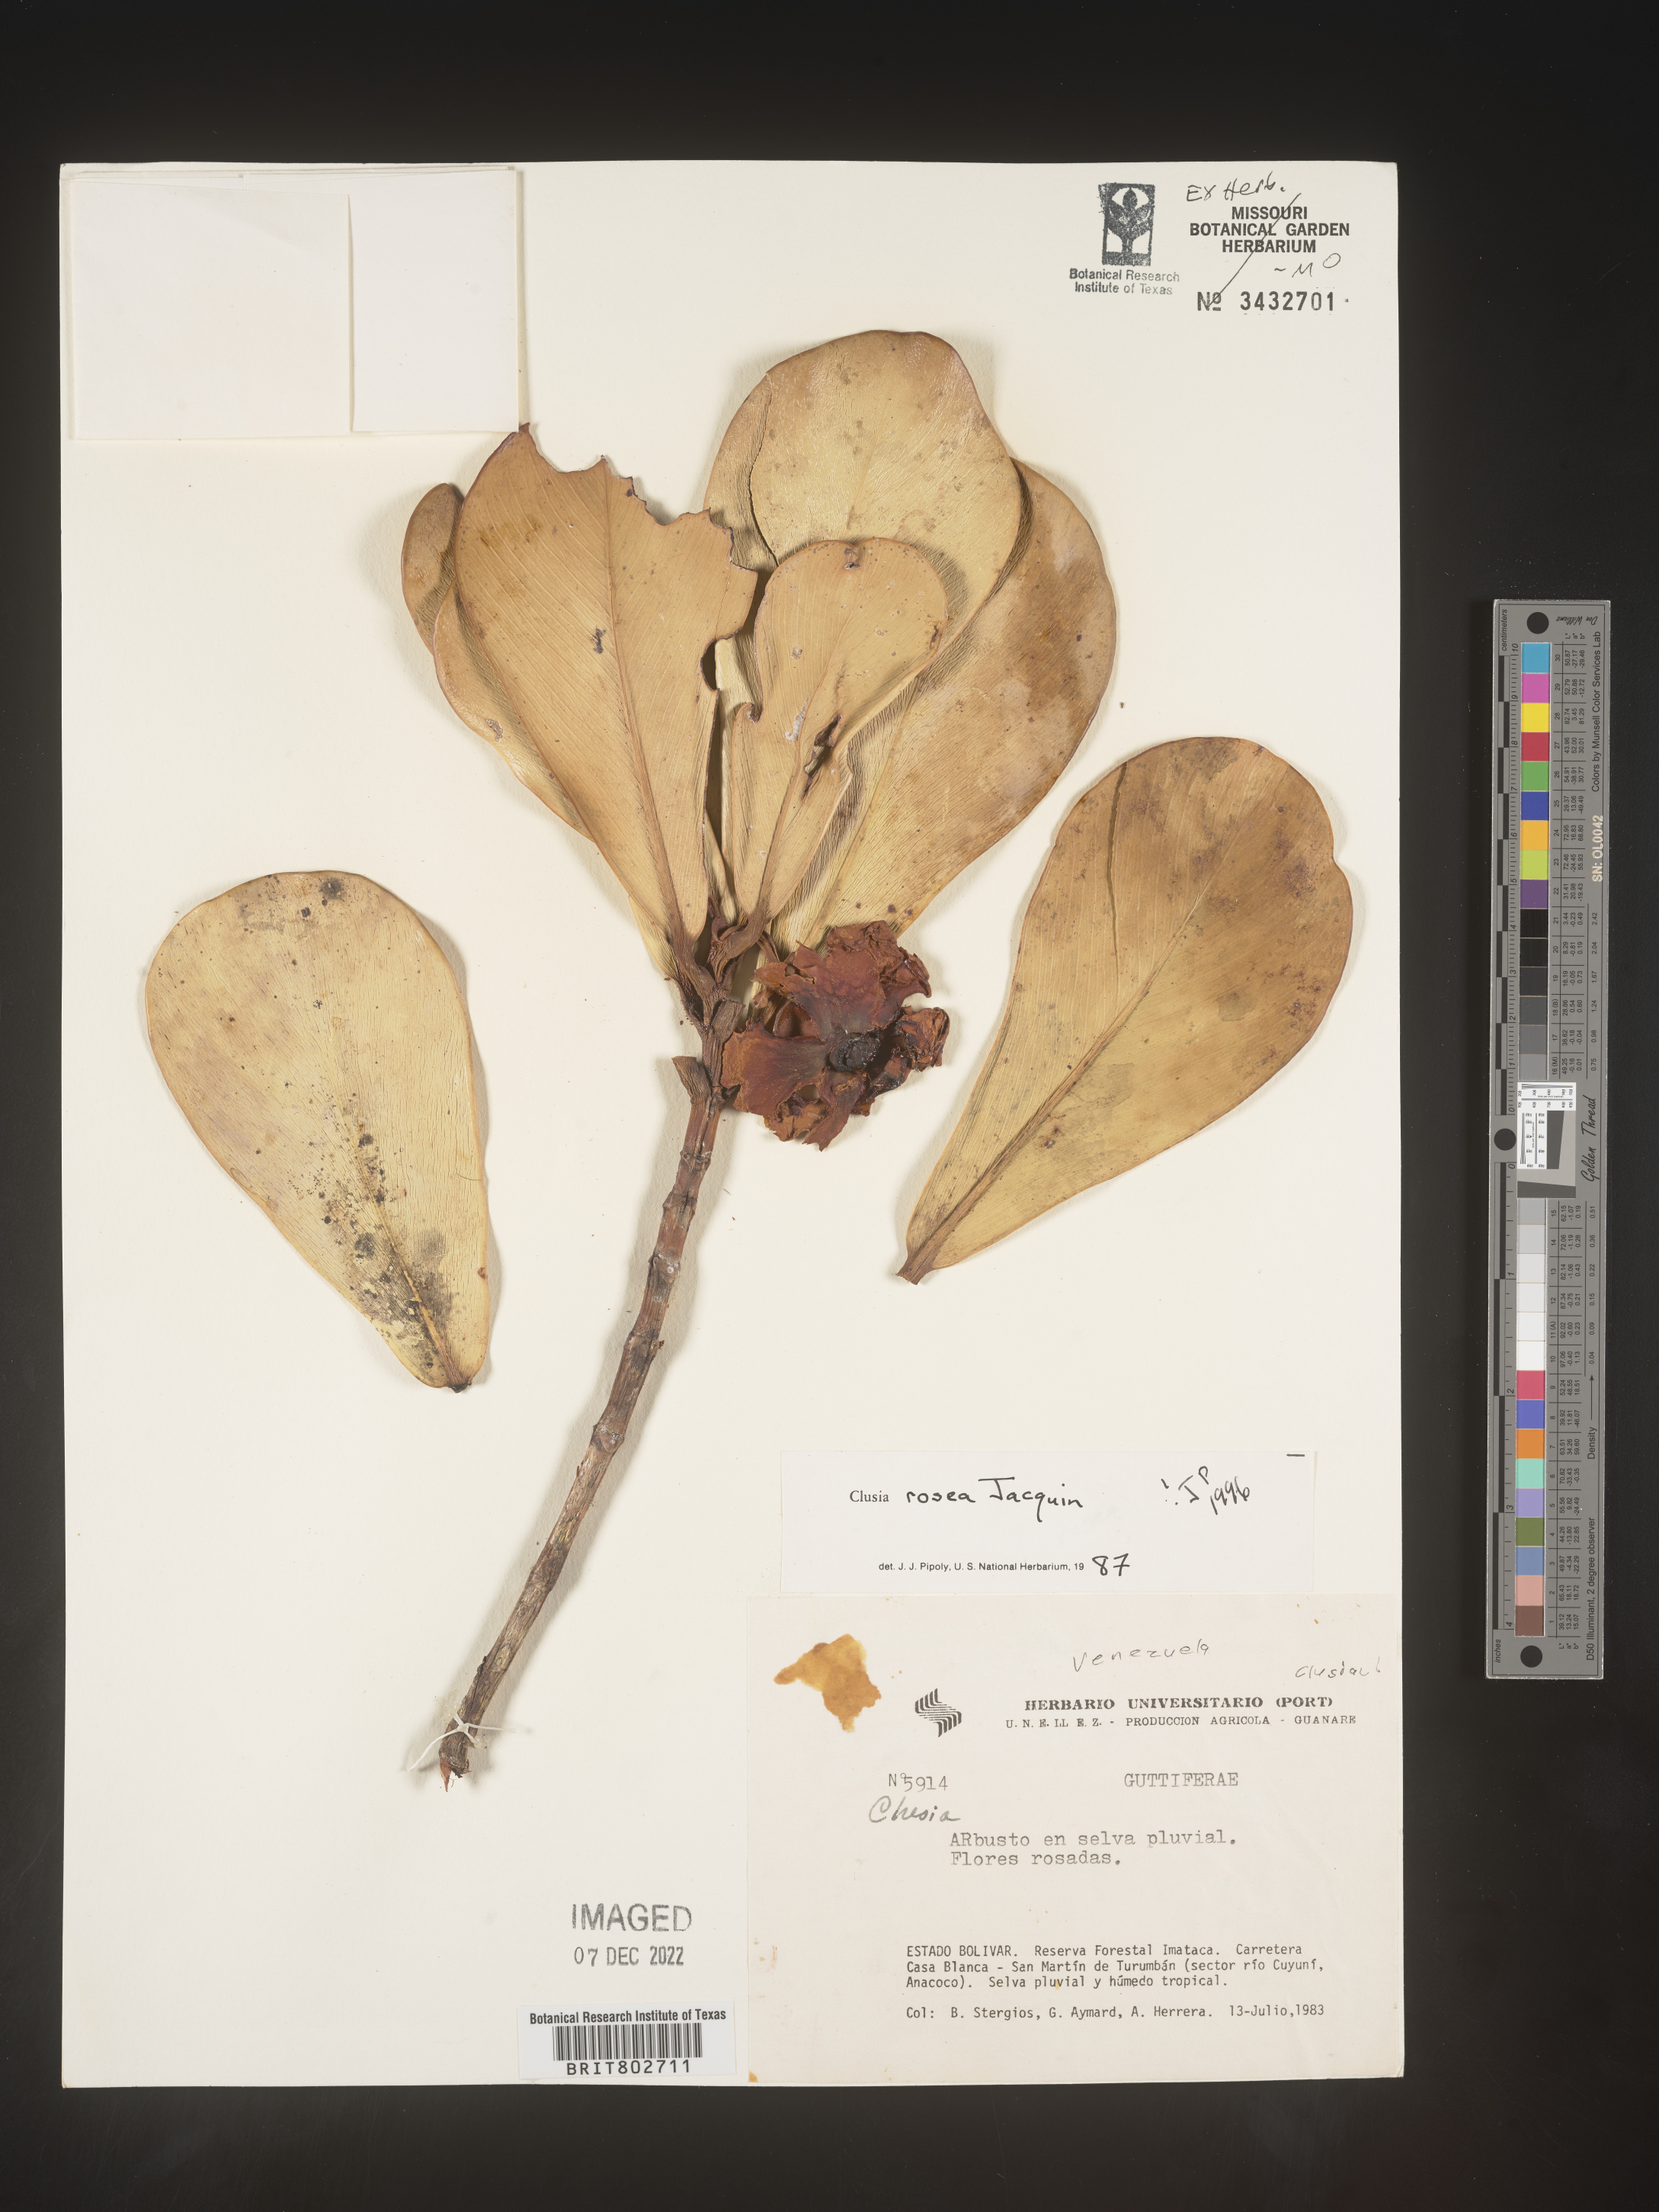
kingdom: Plantae
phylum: Tracheophyta
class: Magnoliopsida
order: Malpighiales
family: Clusiaceae
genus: Clusia
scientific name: Clusia
